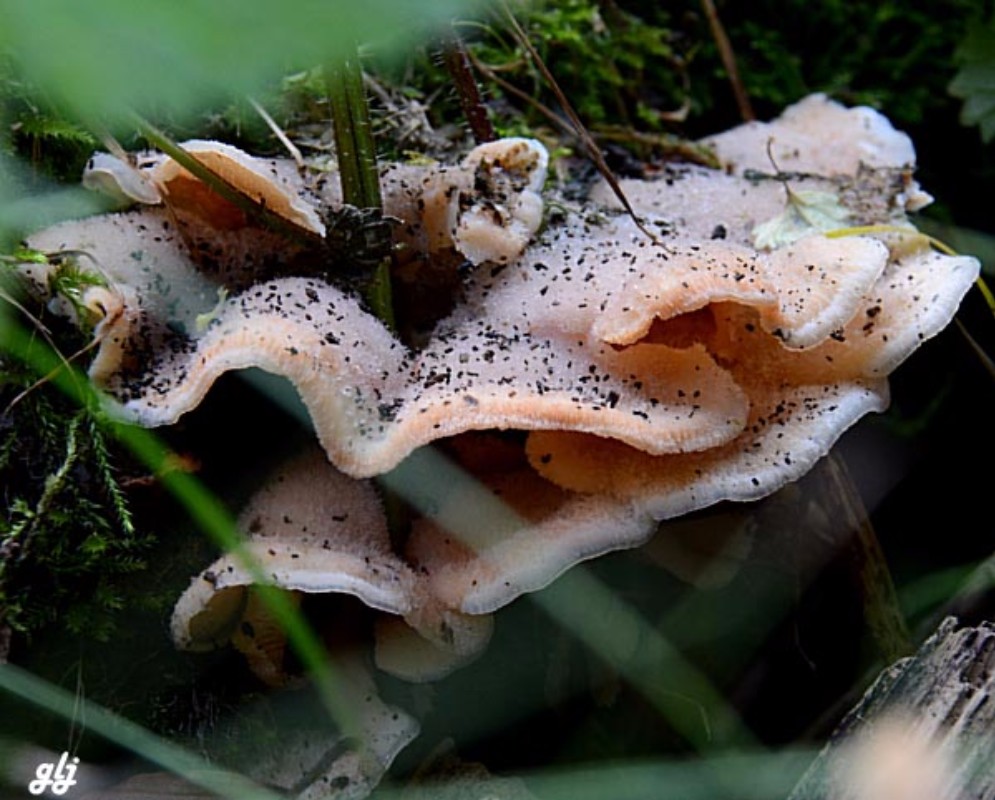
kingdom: Fungi
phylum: Basidiomycota
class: Agaricomycetes
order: Polyporales
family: Meruliaceae
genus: Phlebia
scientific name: Phlebia tremellosa
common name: bævrende åresvamp
